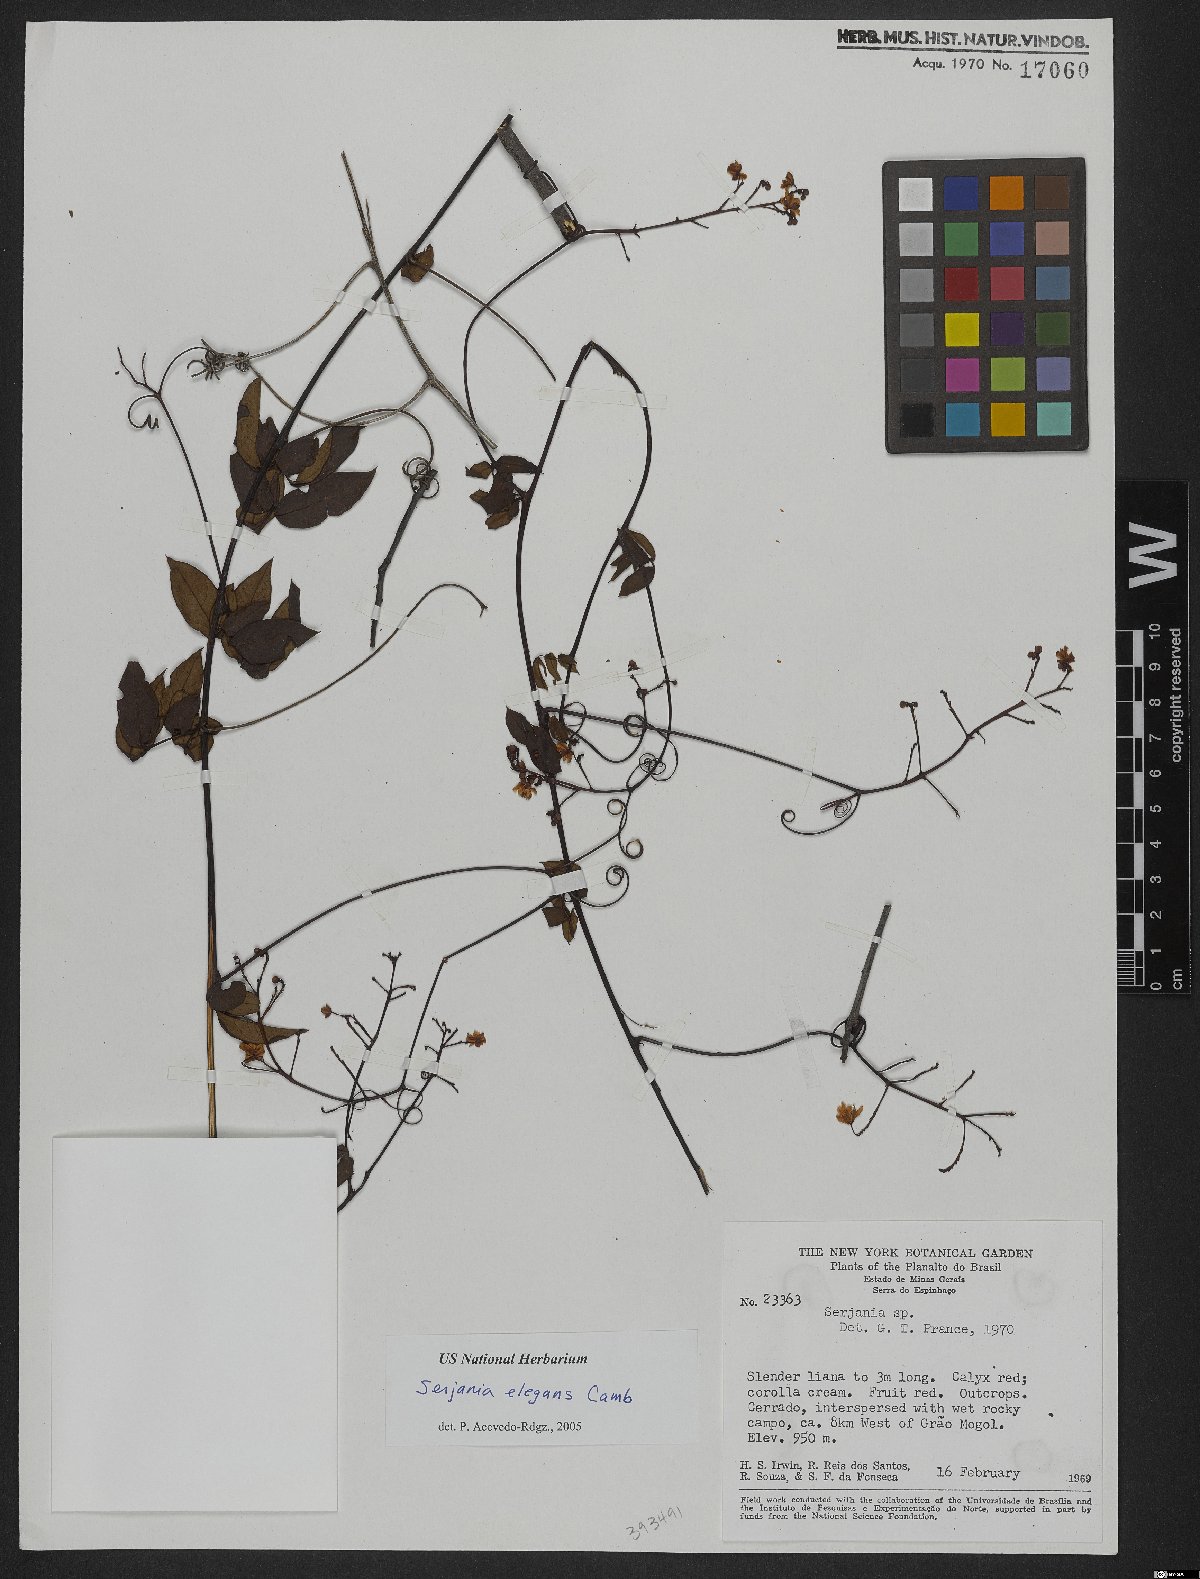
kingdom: Plantae
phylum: Tracheophyta
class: Magnoliopsida
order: Sapindales
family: Sapindaceae
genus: Serjania
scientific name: Serjania elegans
